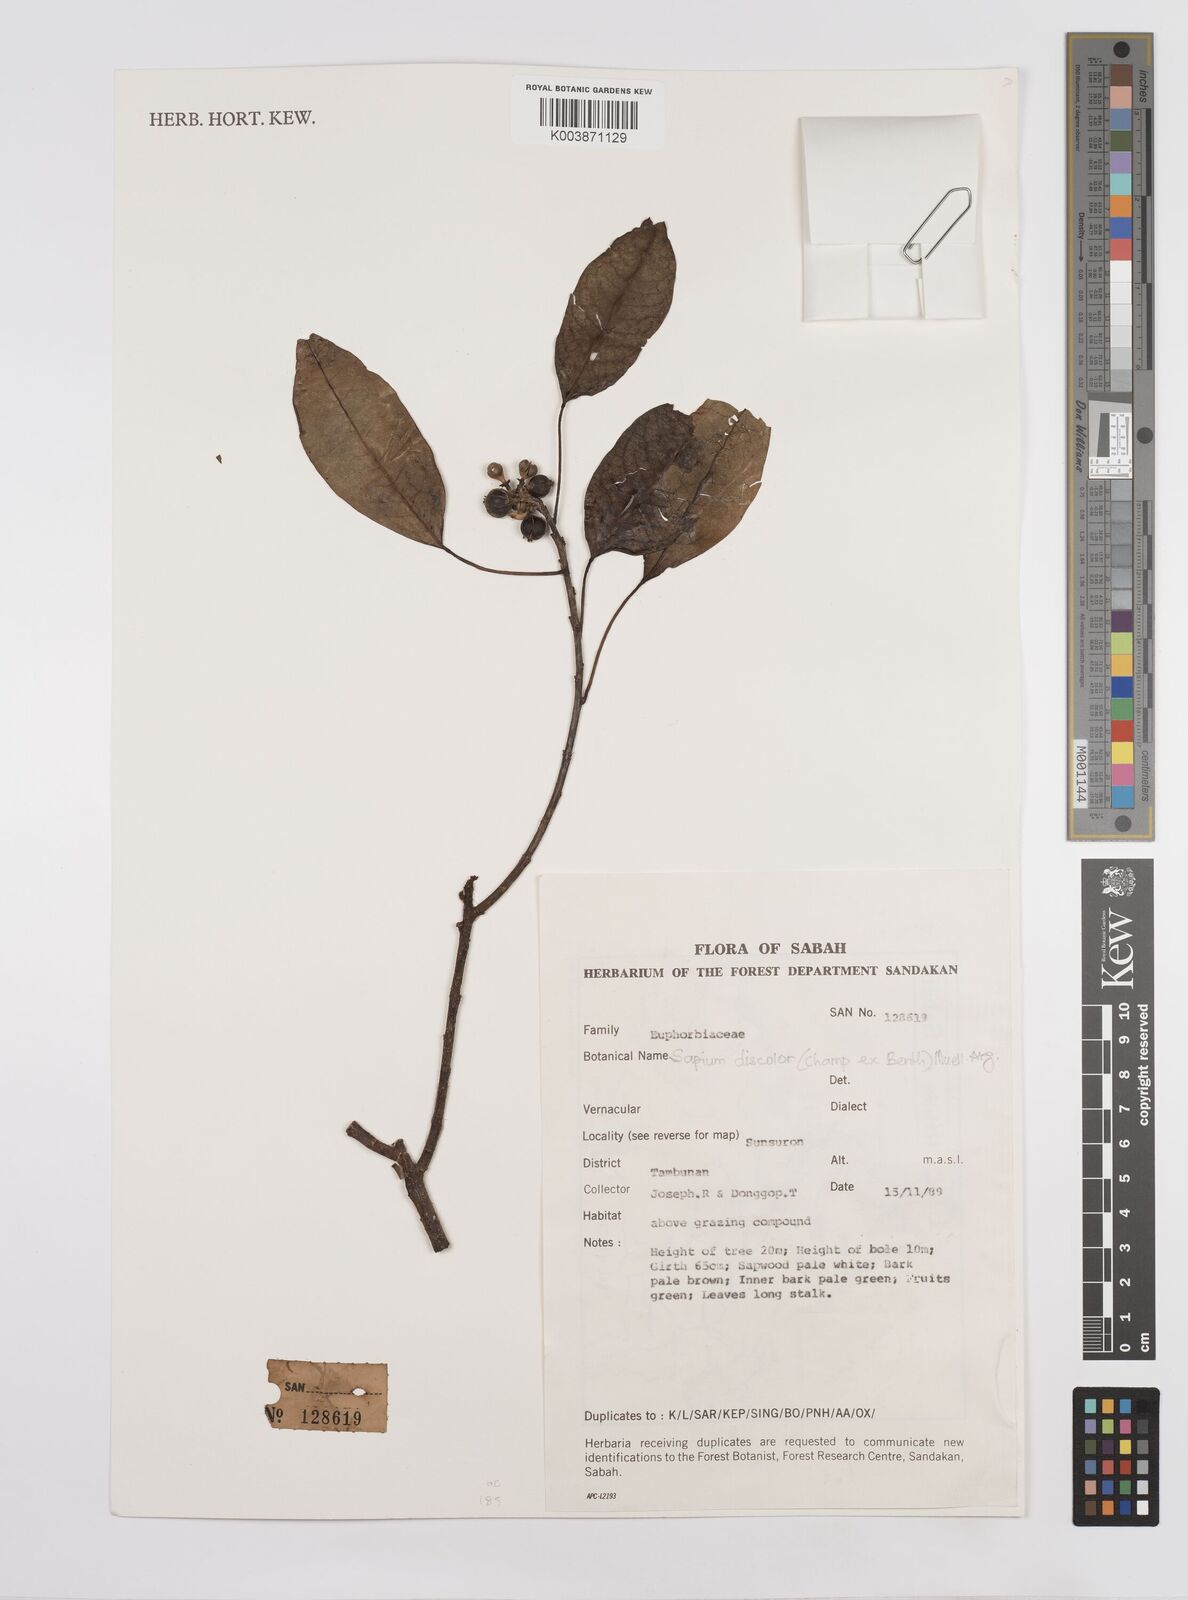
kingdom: Plantae
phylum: Tracheophyta
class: Magnoliopsida
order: Malpighiales
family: Euphorbiaceae
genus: Triadica
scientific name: Triadica cochinchinensis
